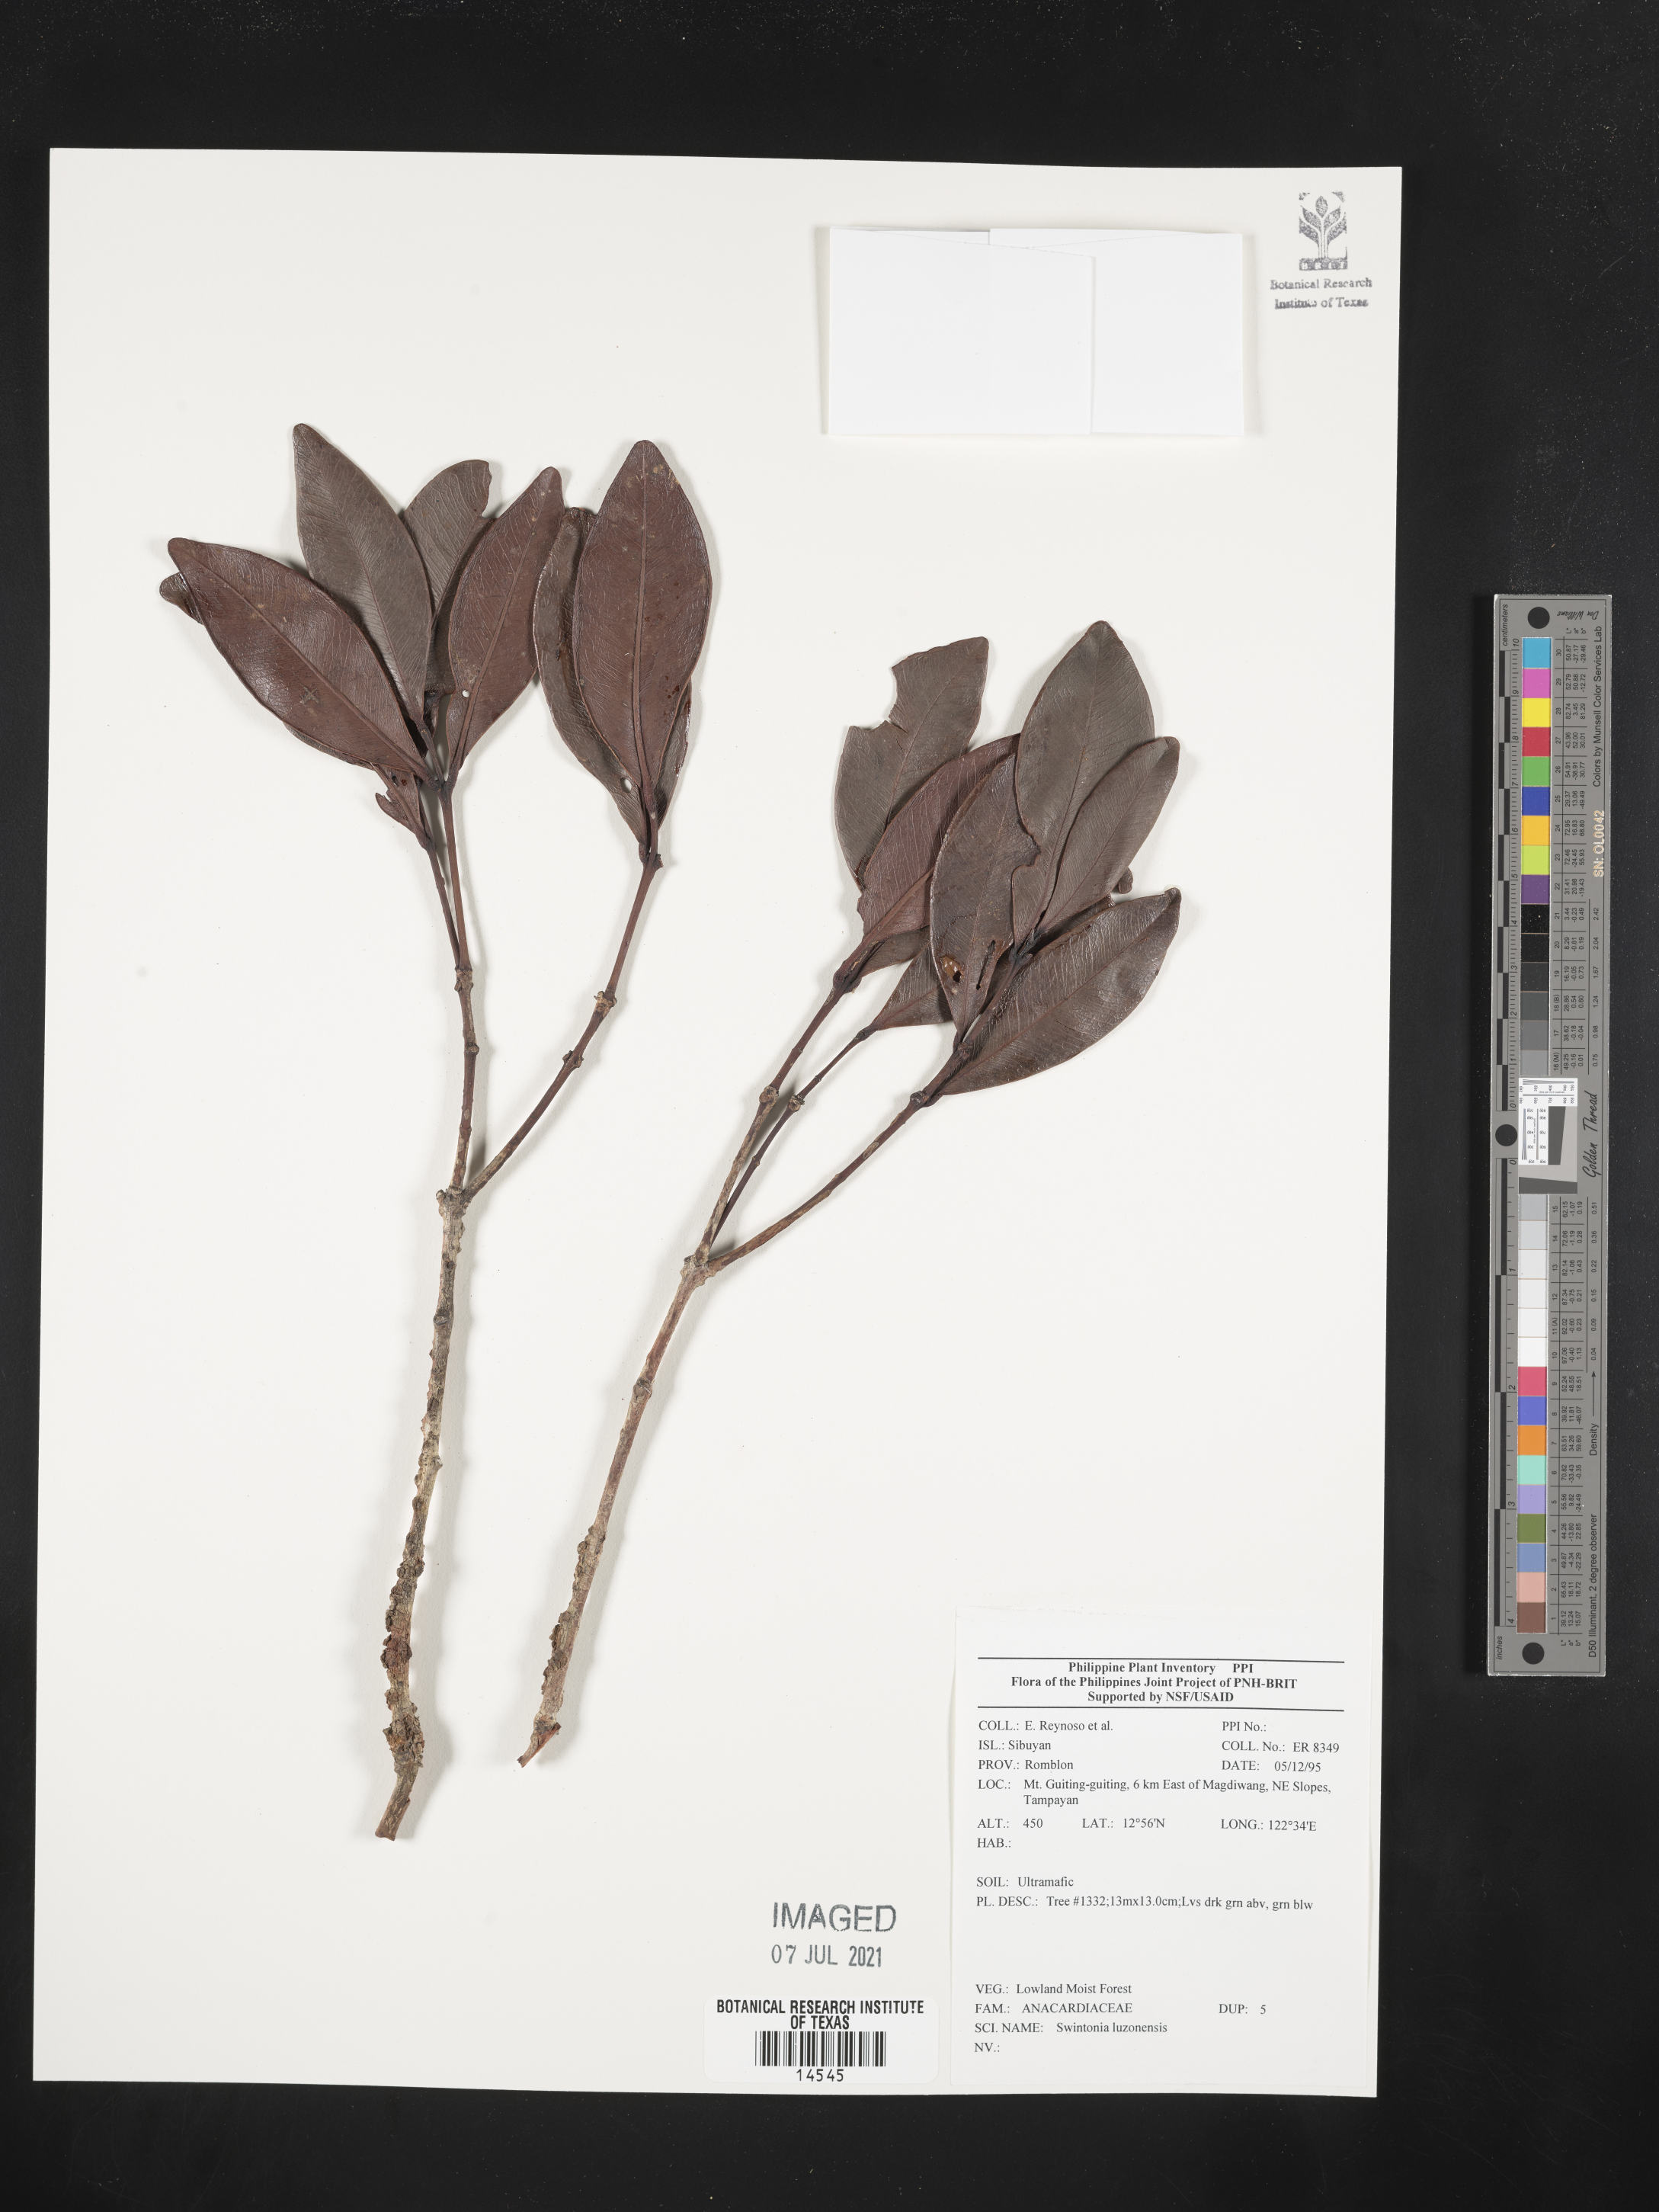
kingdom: Plantae
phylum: Tracheophyta
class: Magnoliopsida
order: Sapindales
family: Anacardiaceae
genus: Swintonia
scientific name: Swintonia acuta
